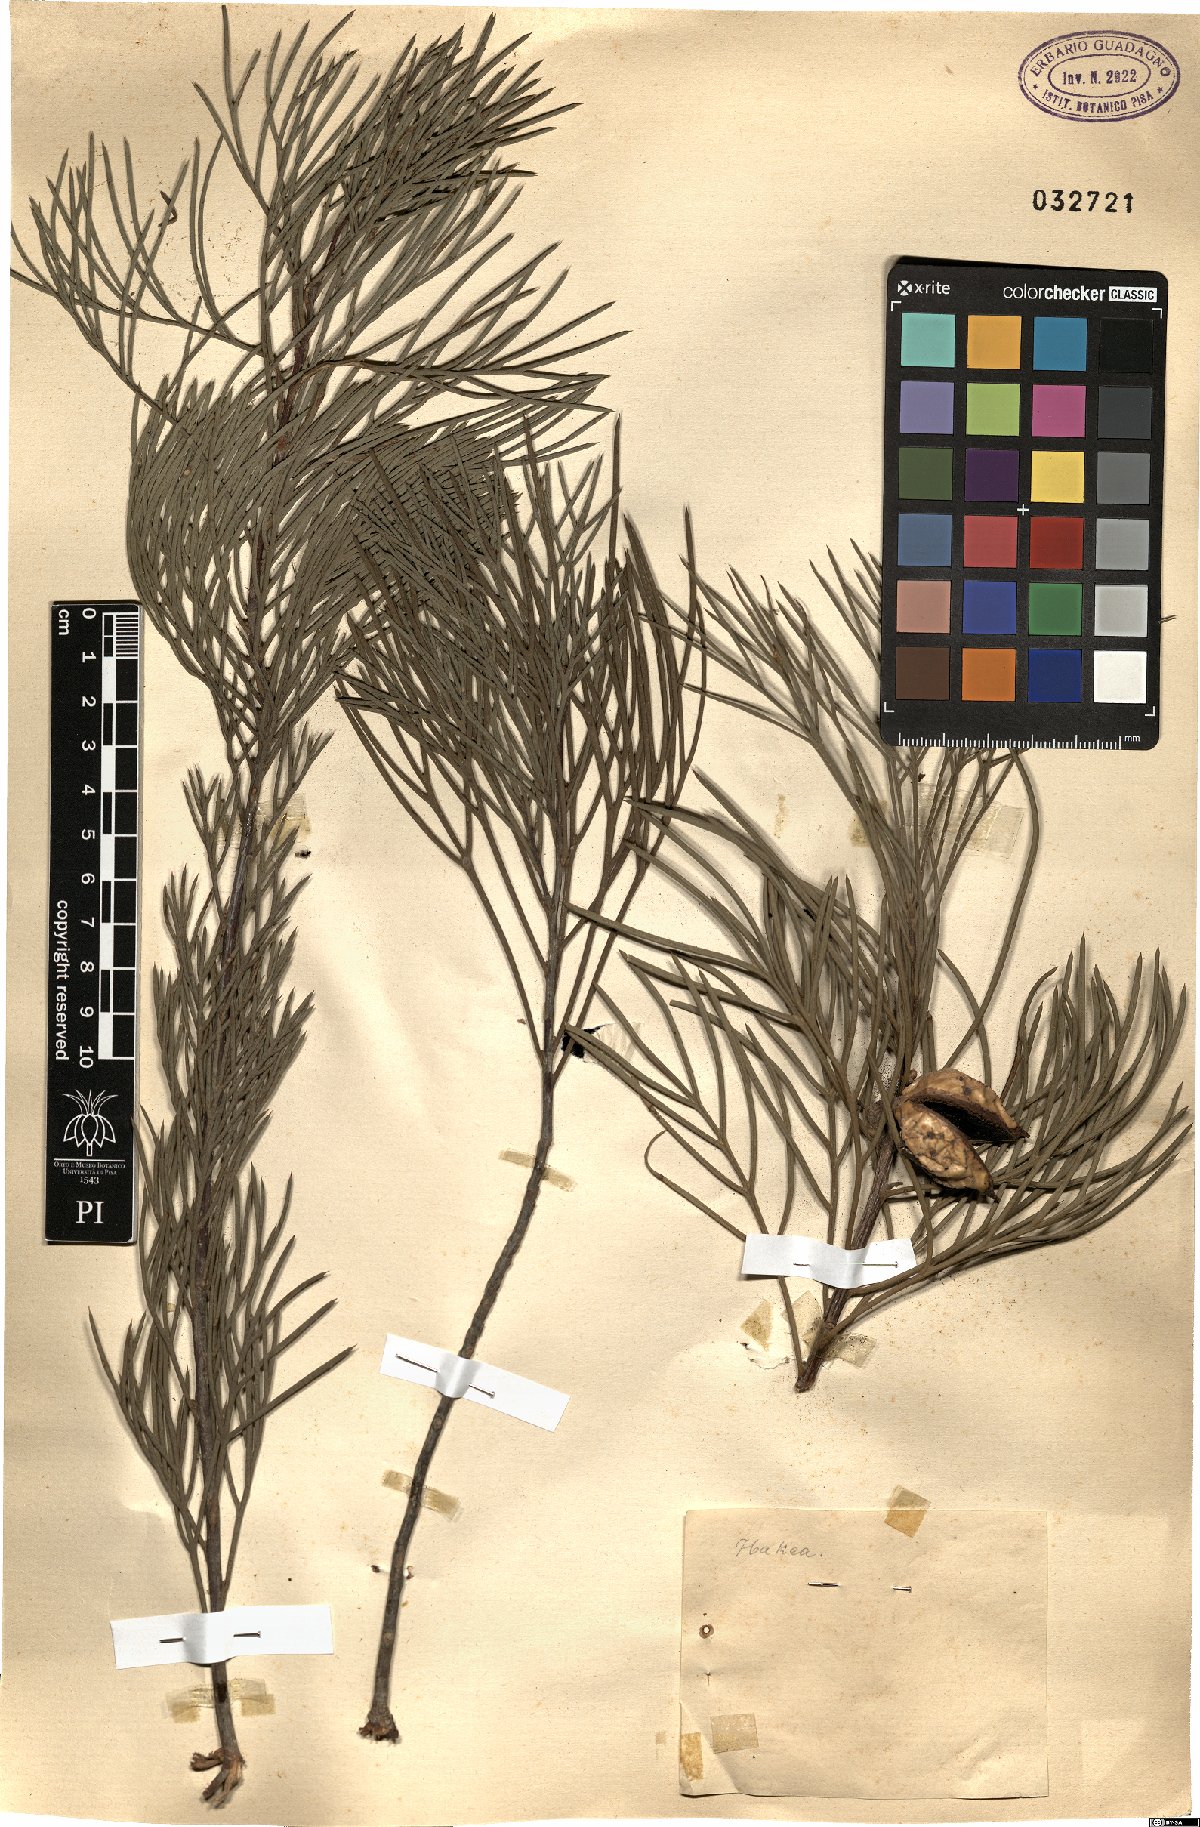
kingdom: Plantae
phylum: Tracheophyta
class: Magnoliopsida
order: Proteales
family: Proteaceae
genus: Hakea
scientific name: Hakea
